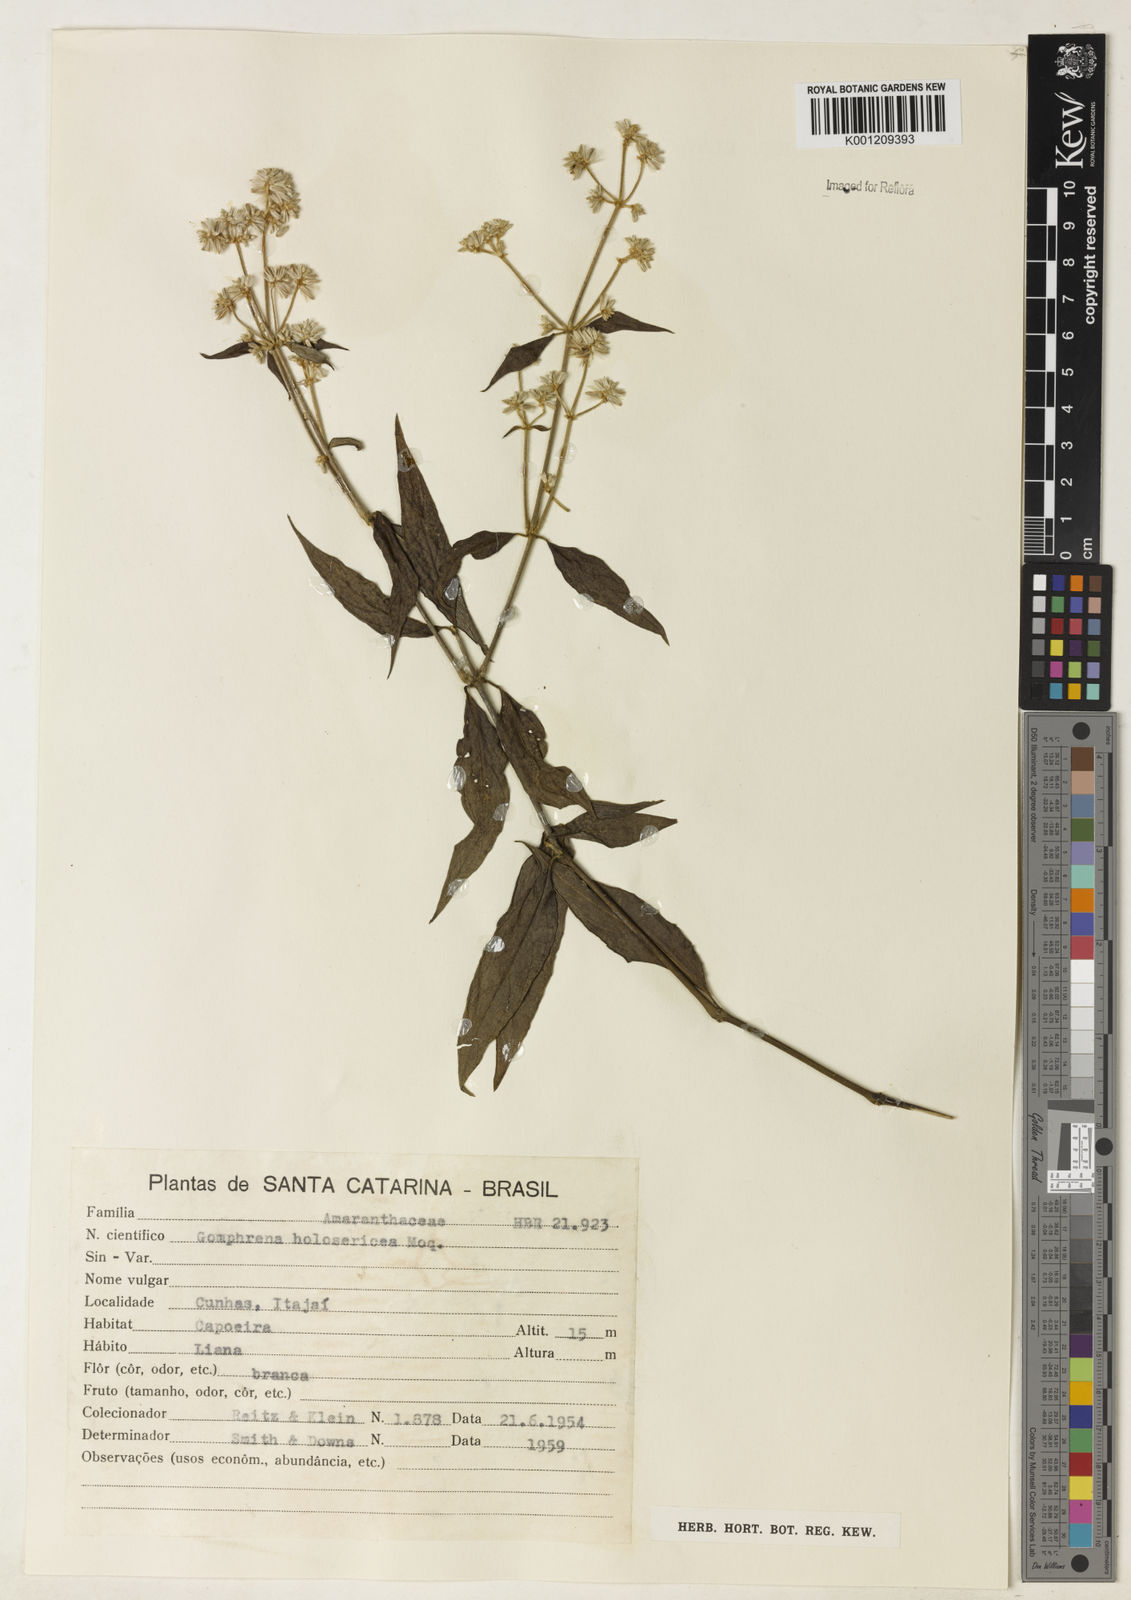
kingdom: Plantae
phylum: Tracheophyta
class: Magnoliopsida
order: Caryophyllales
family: Amaranthaceae
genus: Gomphrena
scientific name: Gomphrena vaga
